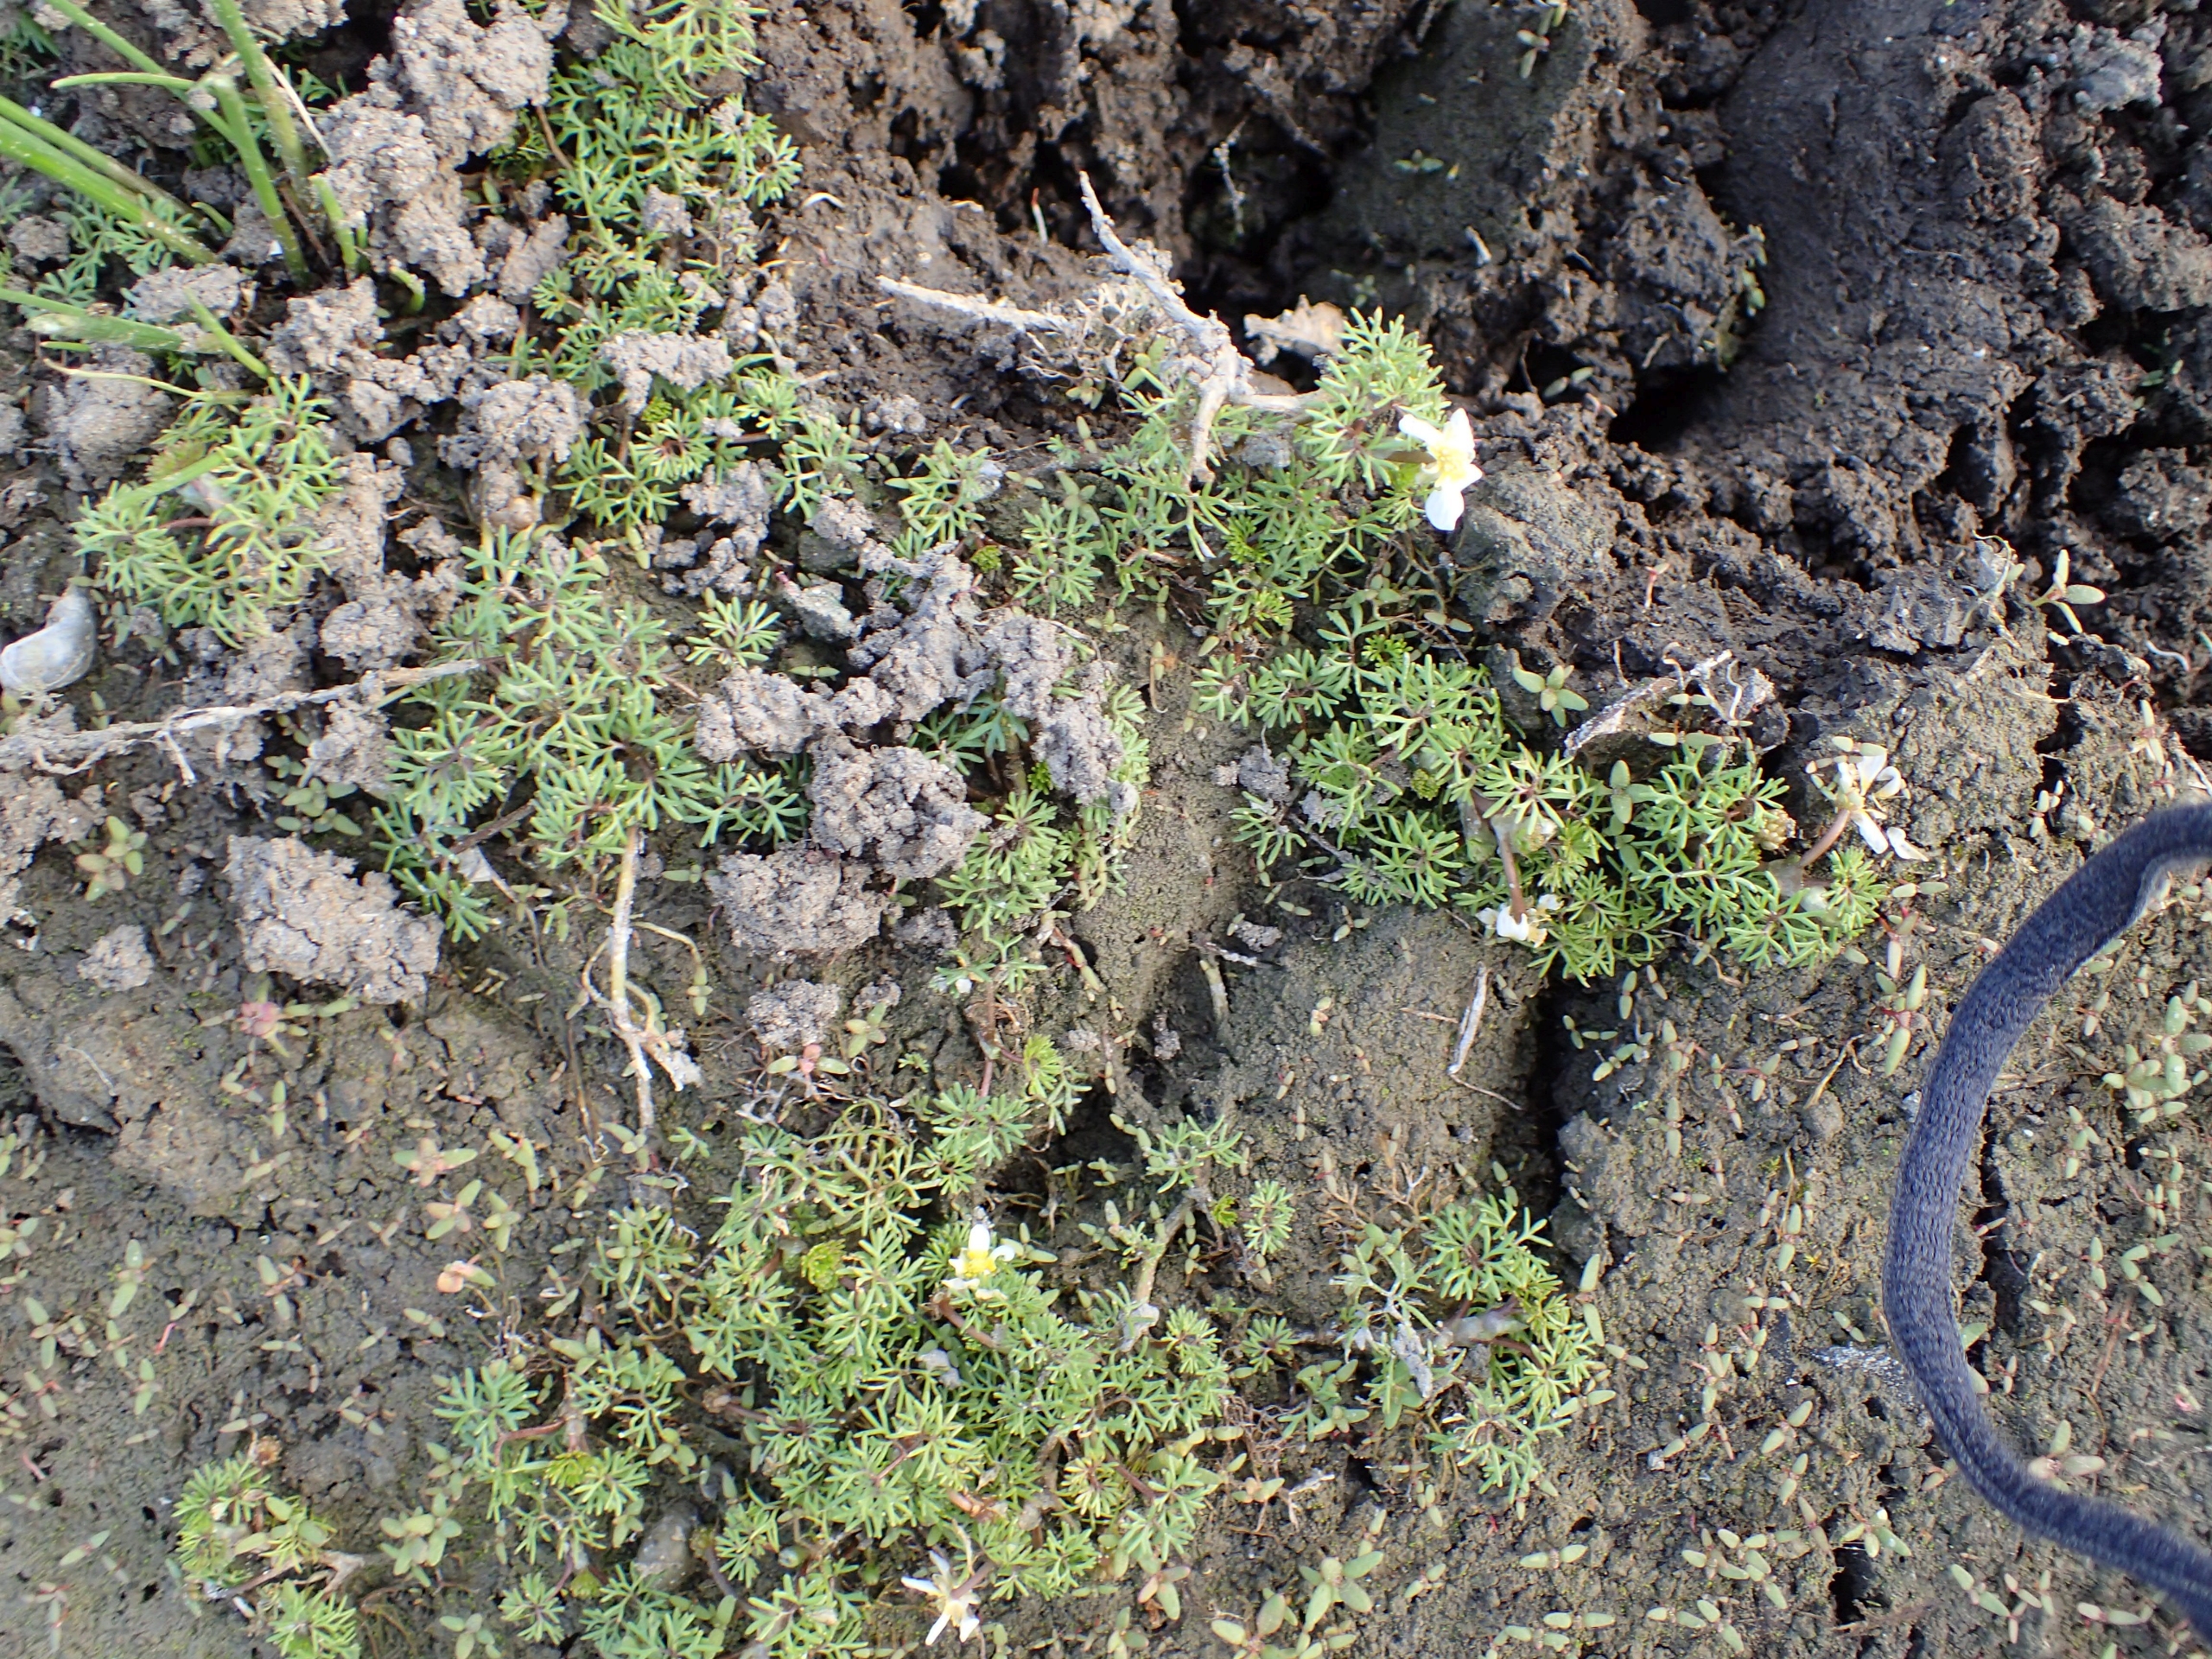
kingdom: Plantae
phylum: Tracheophyta
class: Magnoliopsida
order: Ranunculales
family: Ranunculaceae
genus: Ranunculus
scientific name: Ranunculus
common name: Ranunkelslægten
